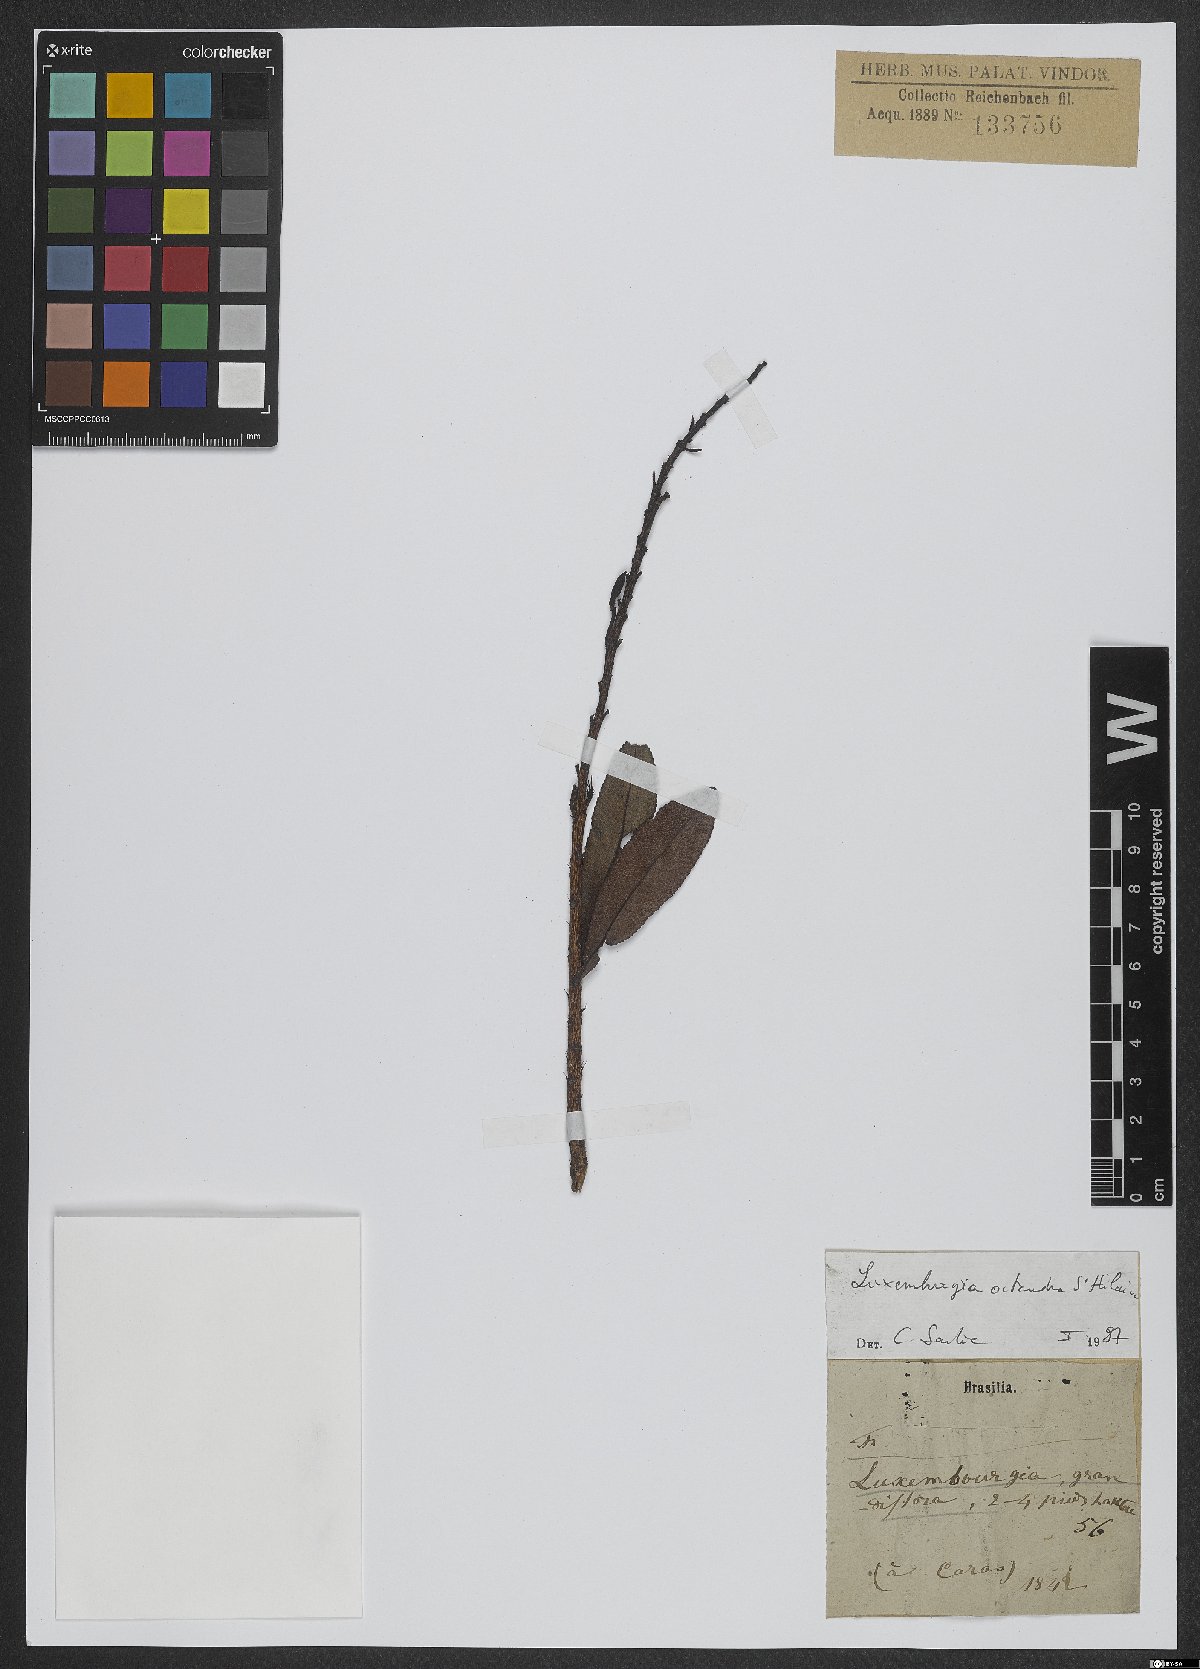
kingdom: Plantae
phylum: Tracheophyta
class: Magnoliopsida
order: Malpighiales
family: Ochnaceae
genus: Luxemburgia
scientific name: Luxemburgia octandra
